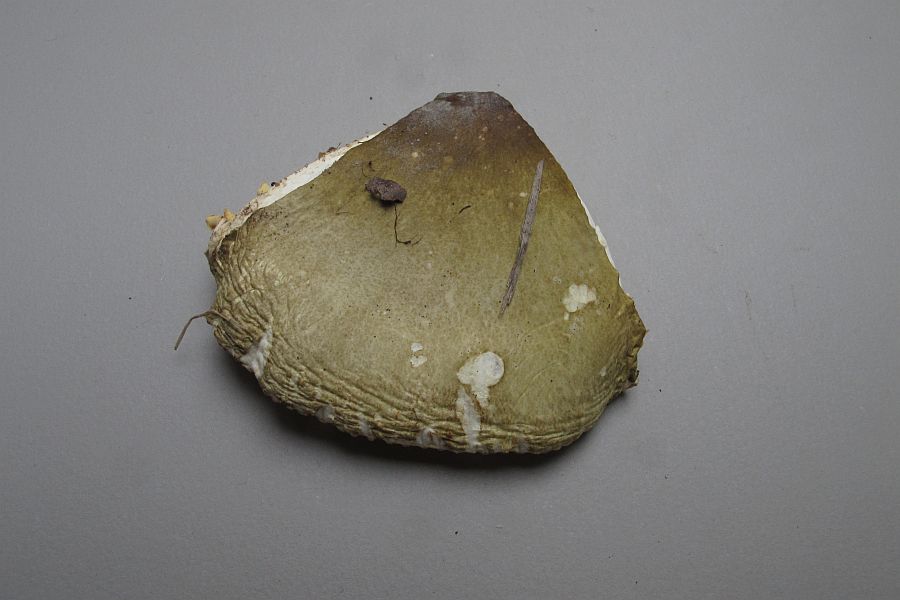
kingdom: Fungi
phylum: Basidiomycota
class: Agaricomycetes
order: Russulales
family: Russulaceae
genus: Russula
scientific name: Russula
